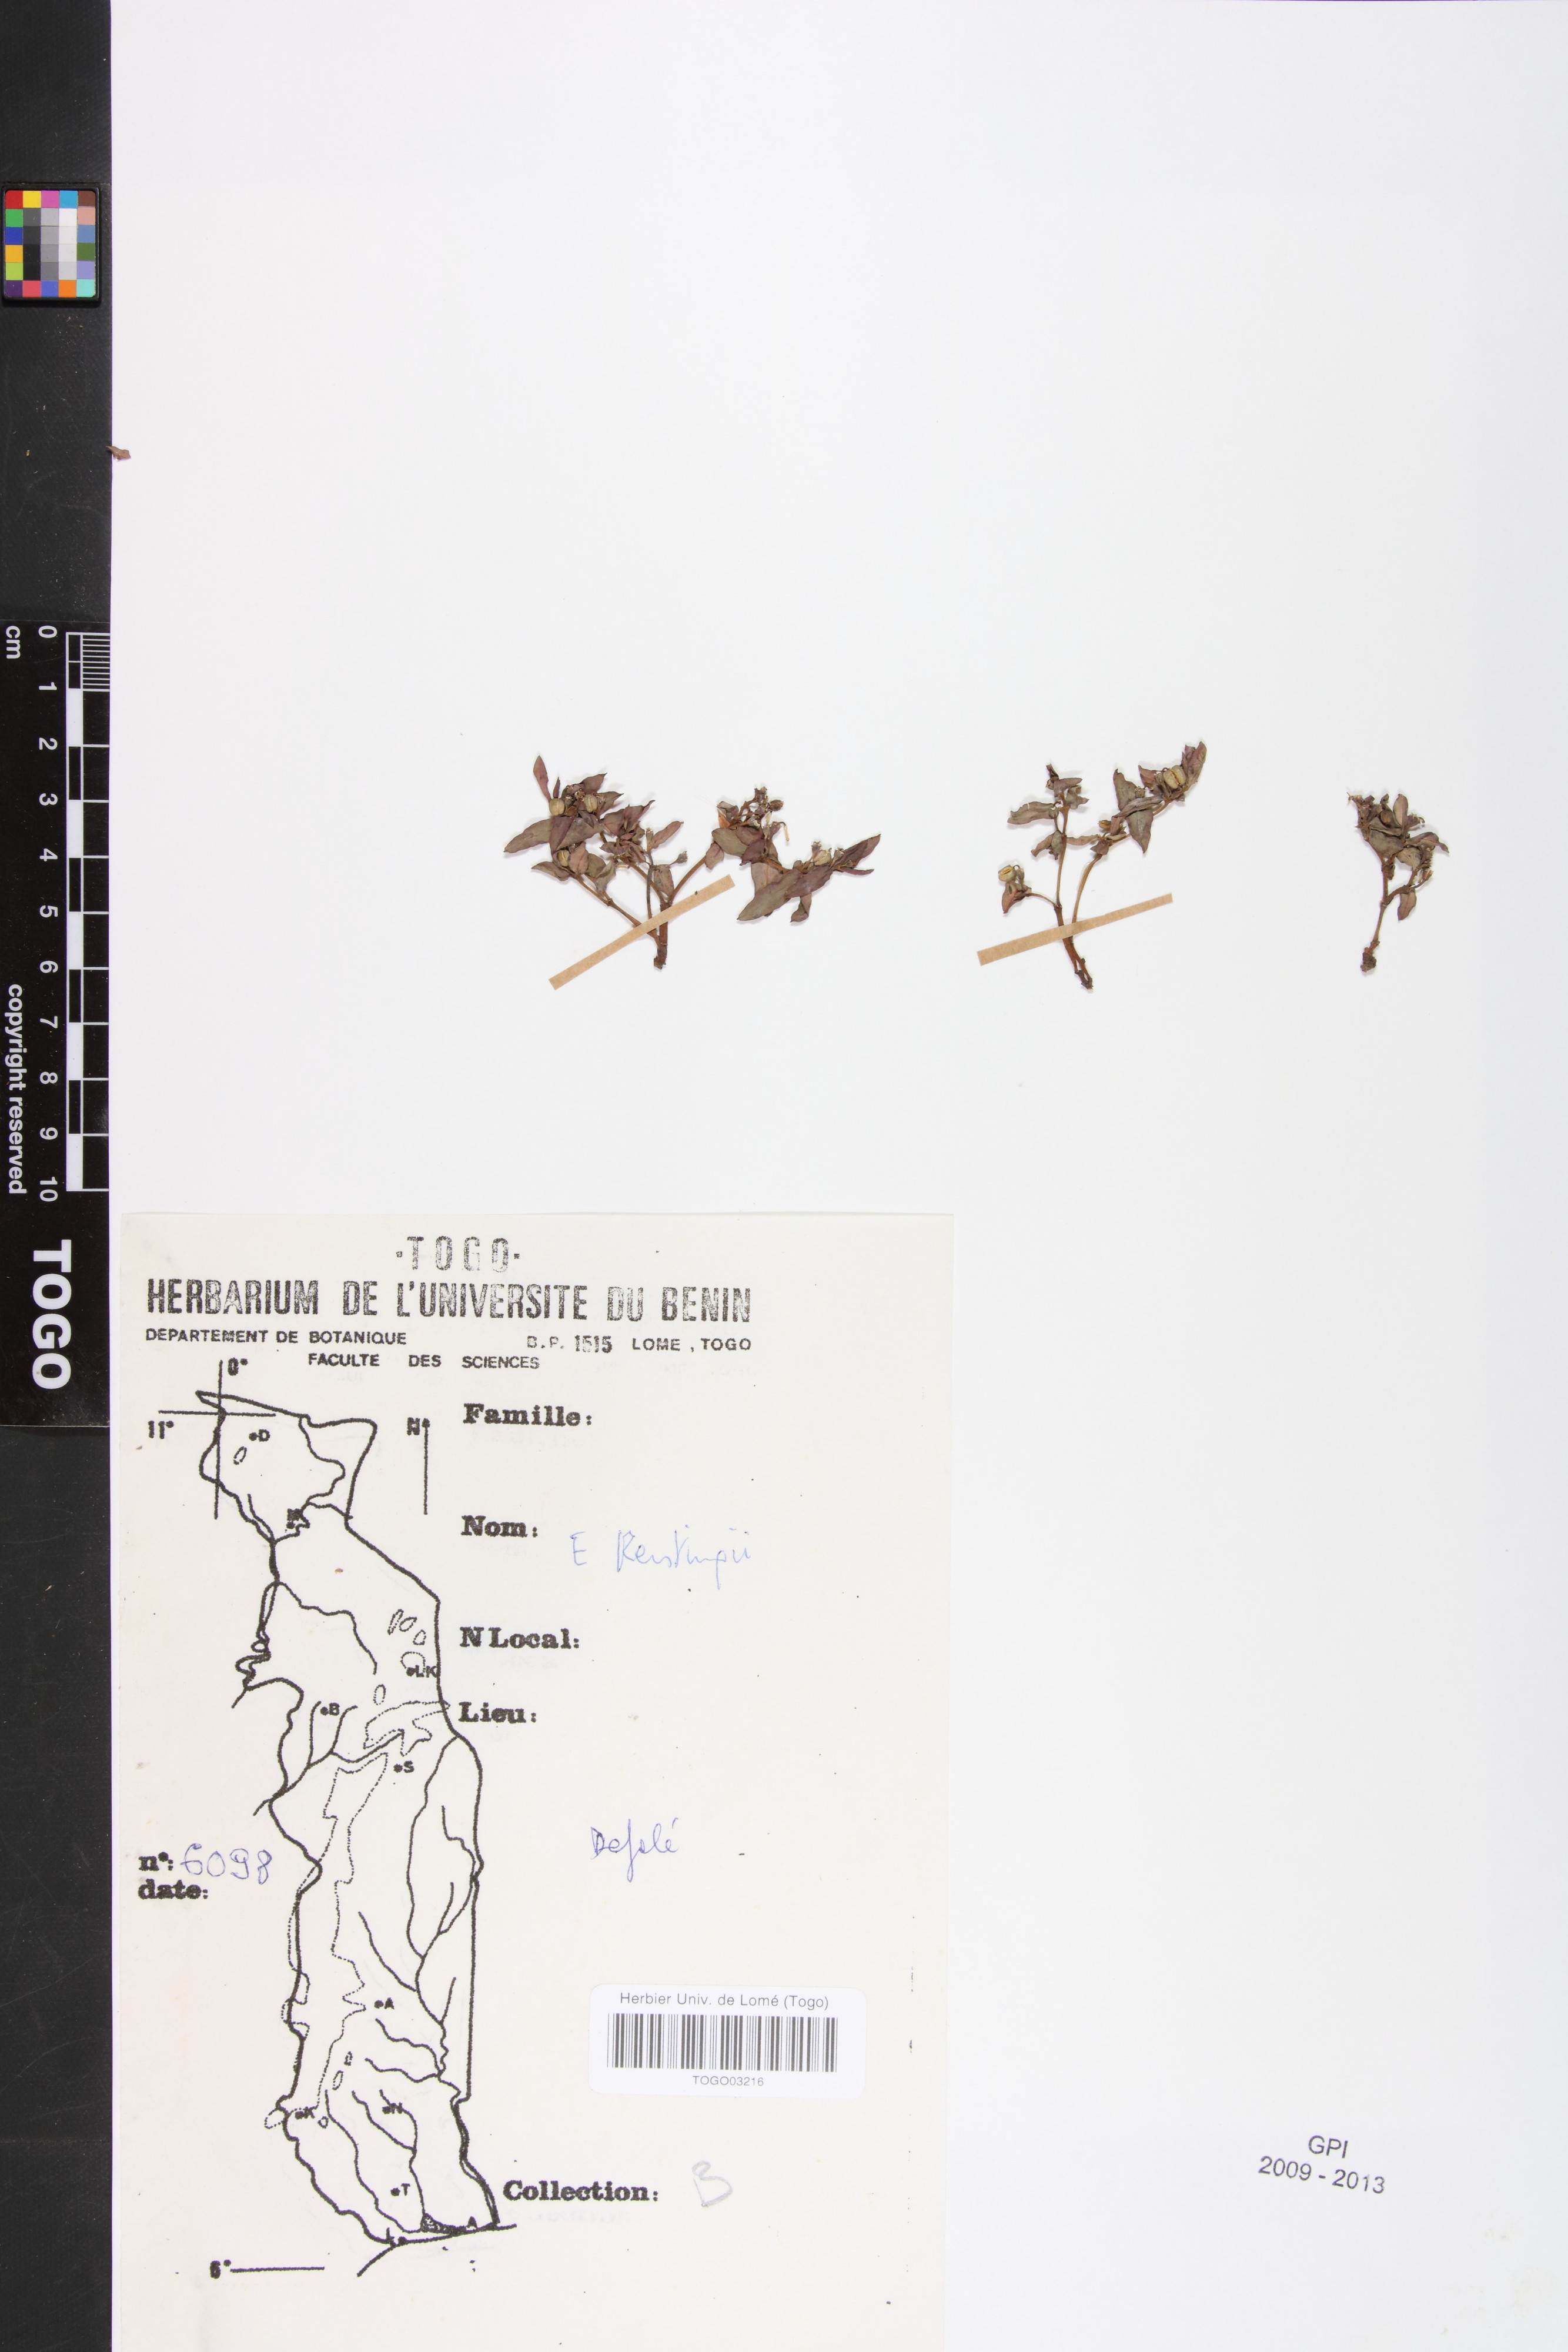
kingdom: Plantae
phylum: Tracheophyta
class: Magnoliopsida
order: Malpighiales
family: Euphorbiaceae
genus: Euphorbia
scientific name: Euphorbia kerstingii
